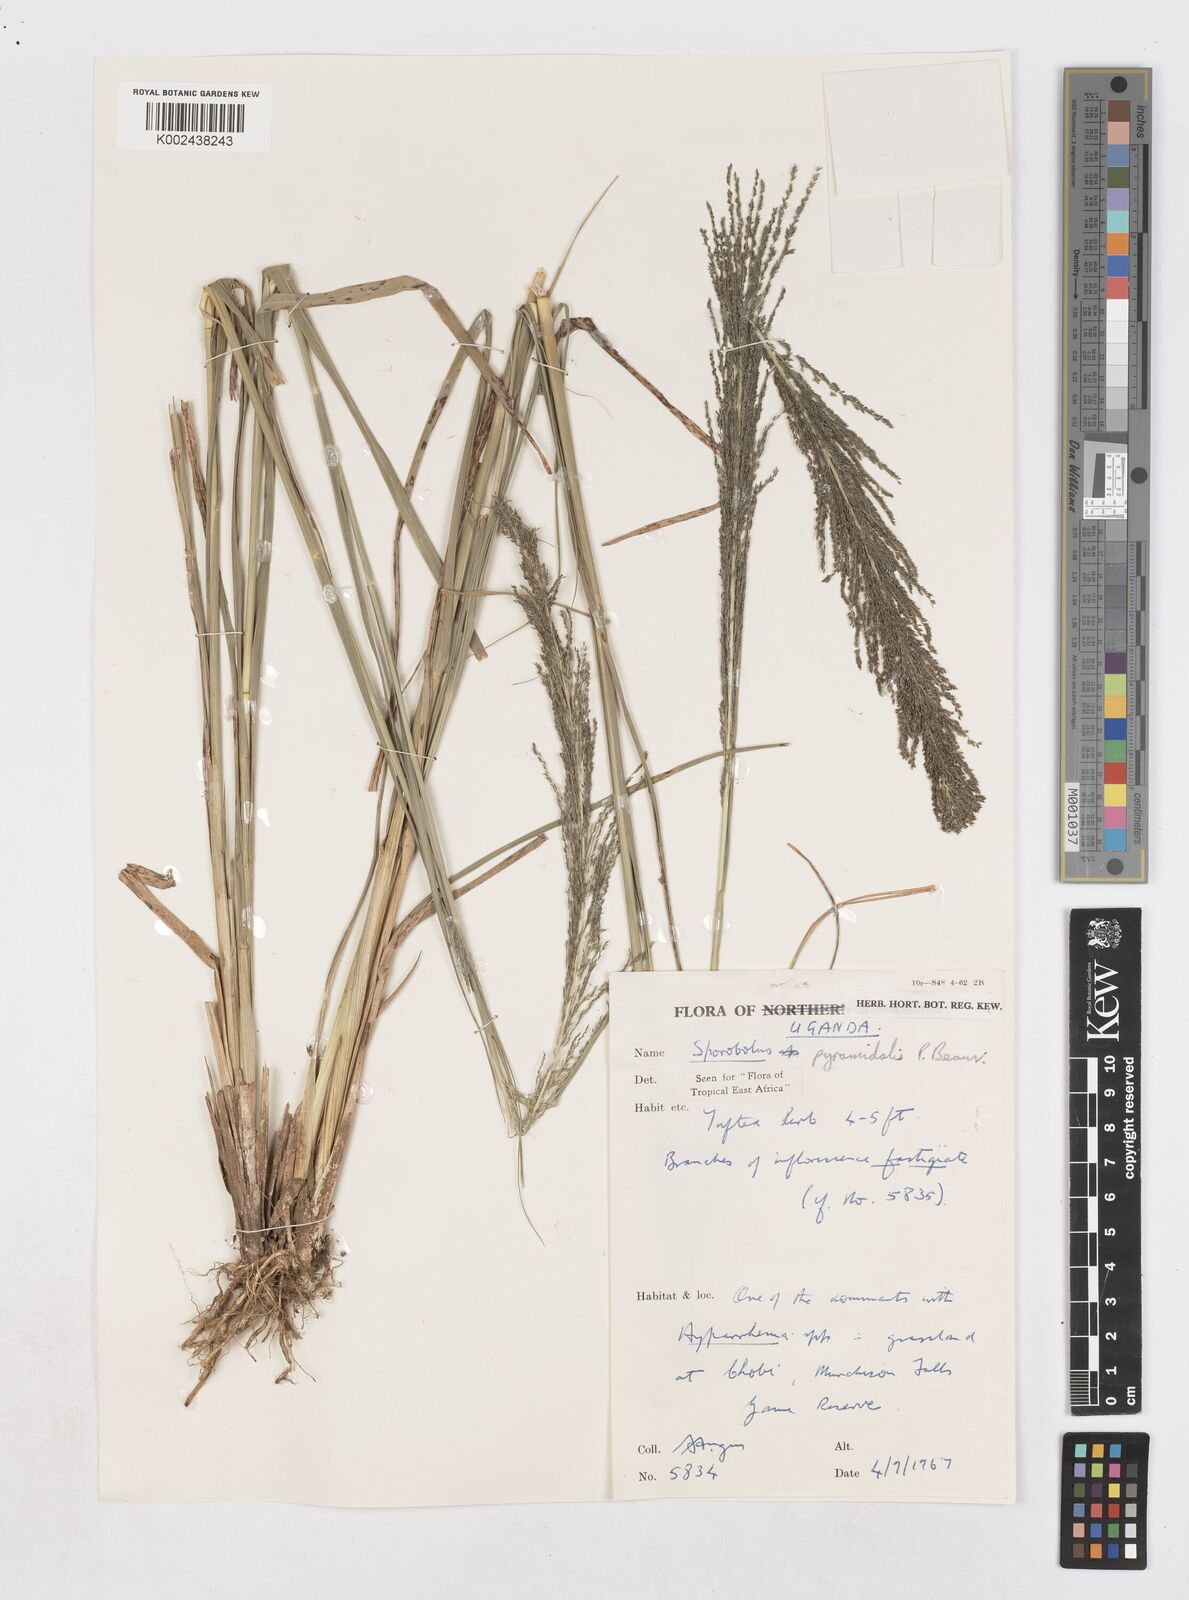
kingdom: Plantae
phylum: Tracheophyta
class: Liliopsida
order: Poales
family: Poaceae
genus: Sporobolus
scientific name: Sporobolus pyramidalis
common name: West indian dropseed
